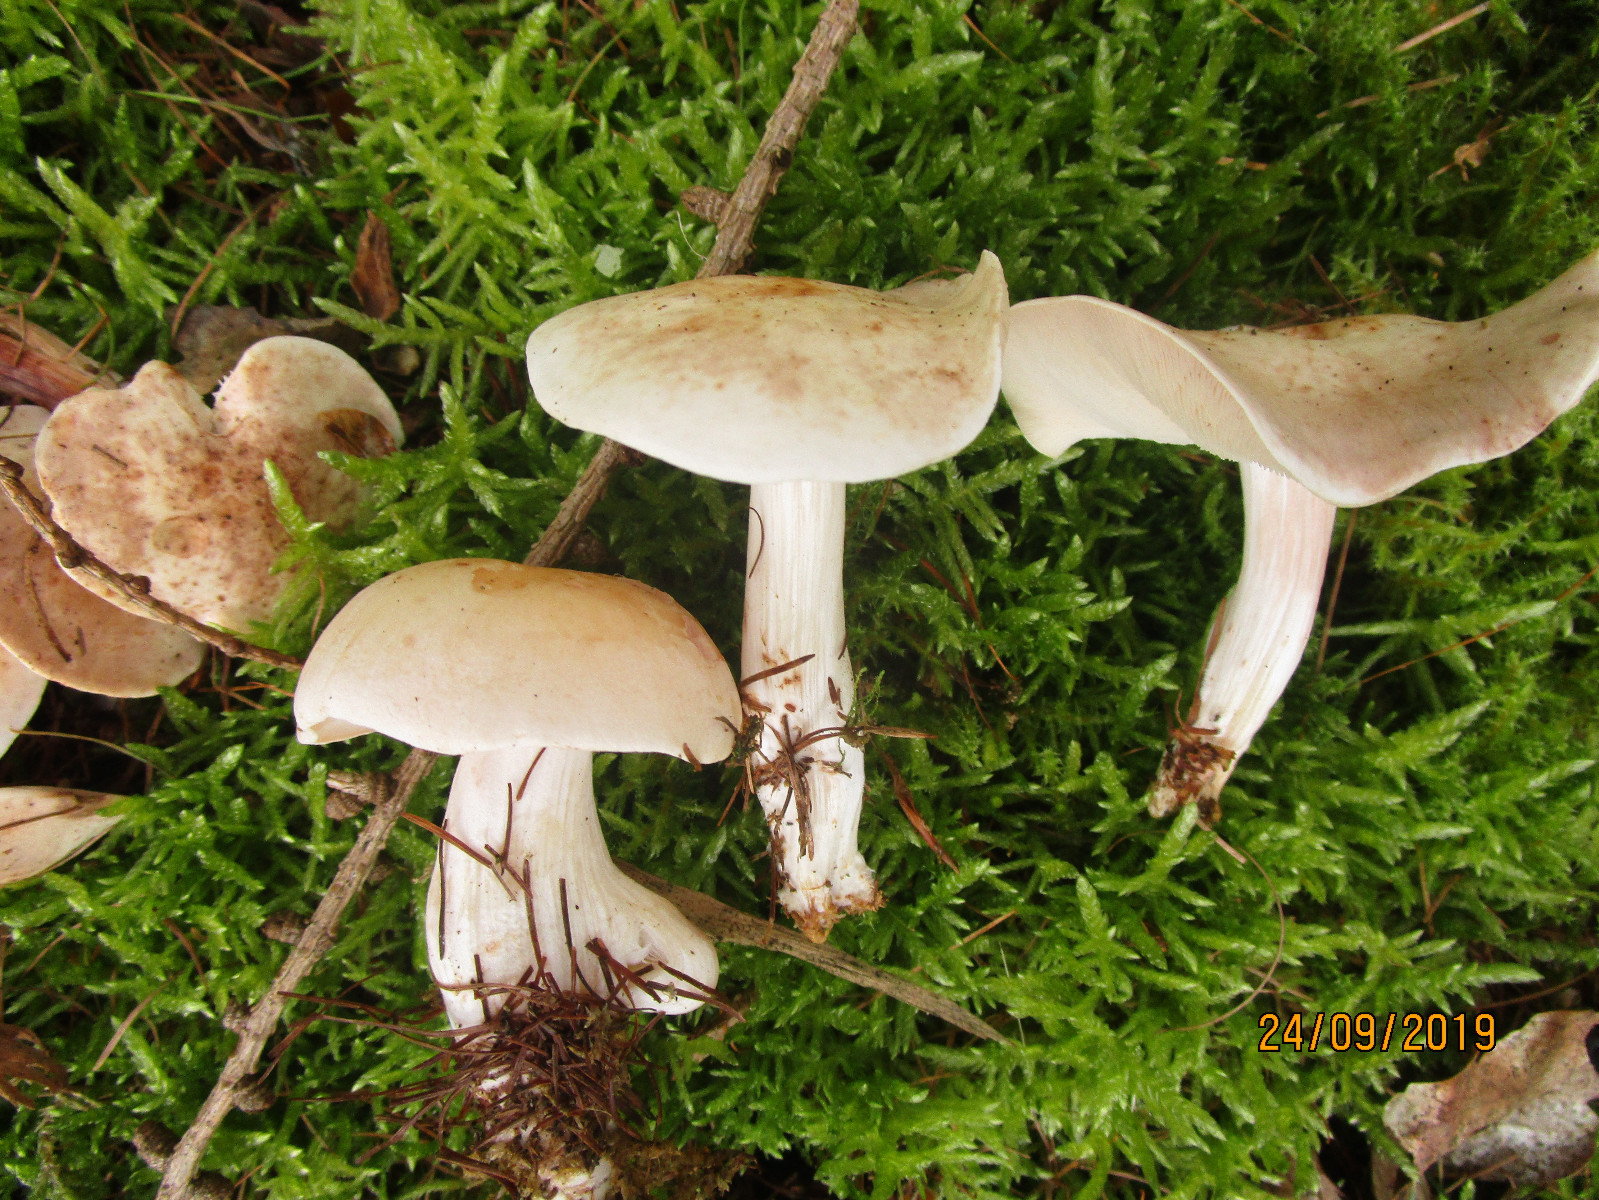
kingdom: Fungi
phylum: Basidiomycota
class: Agaricomycetes
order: Agaricales
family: Omphalotaceae
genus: Rhodocollybia
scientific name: Rhodocollybia maculata
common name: plettet fladhat
